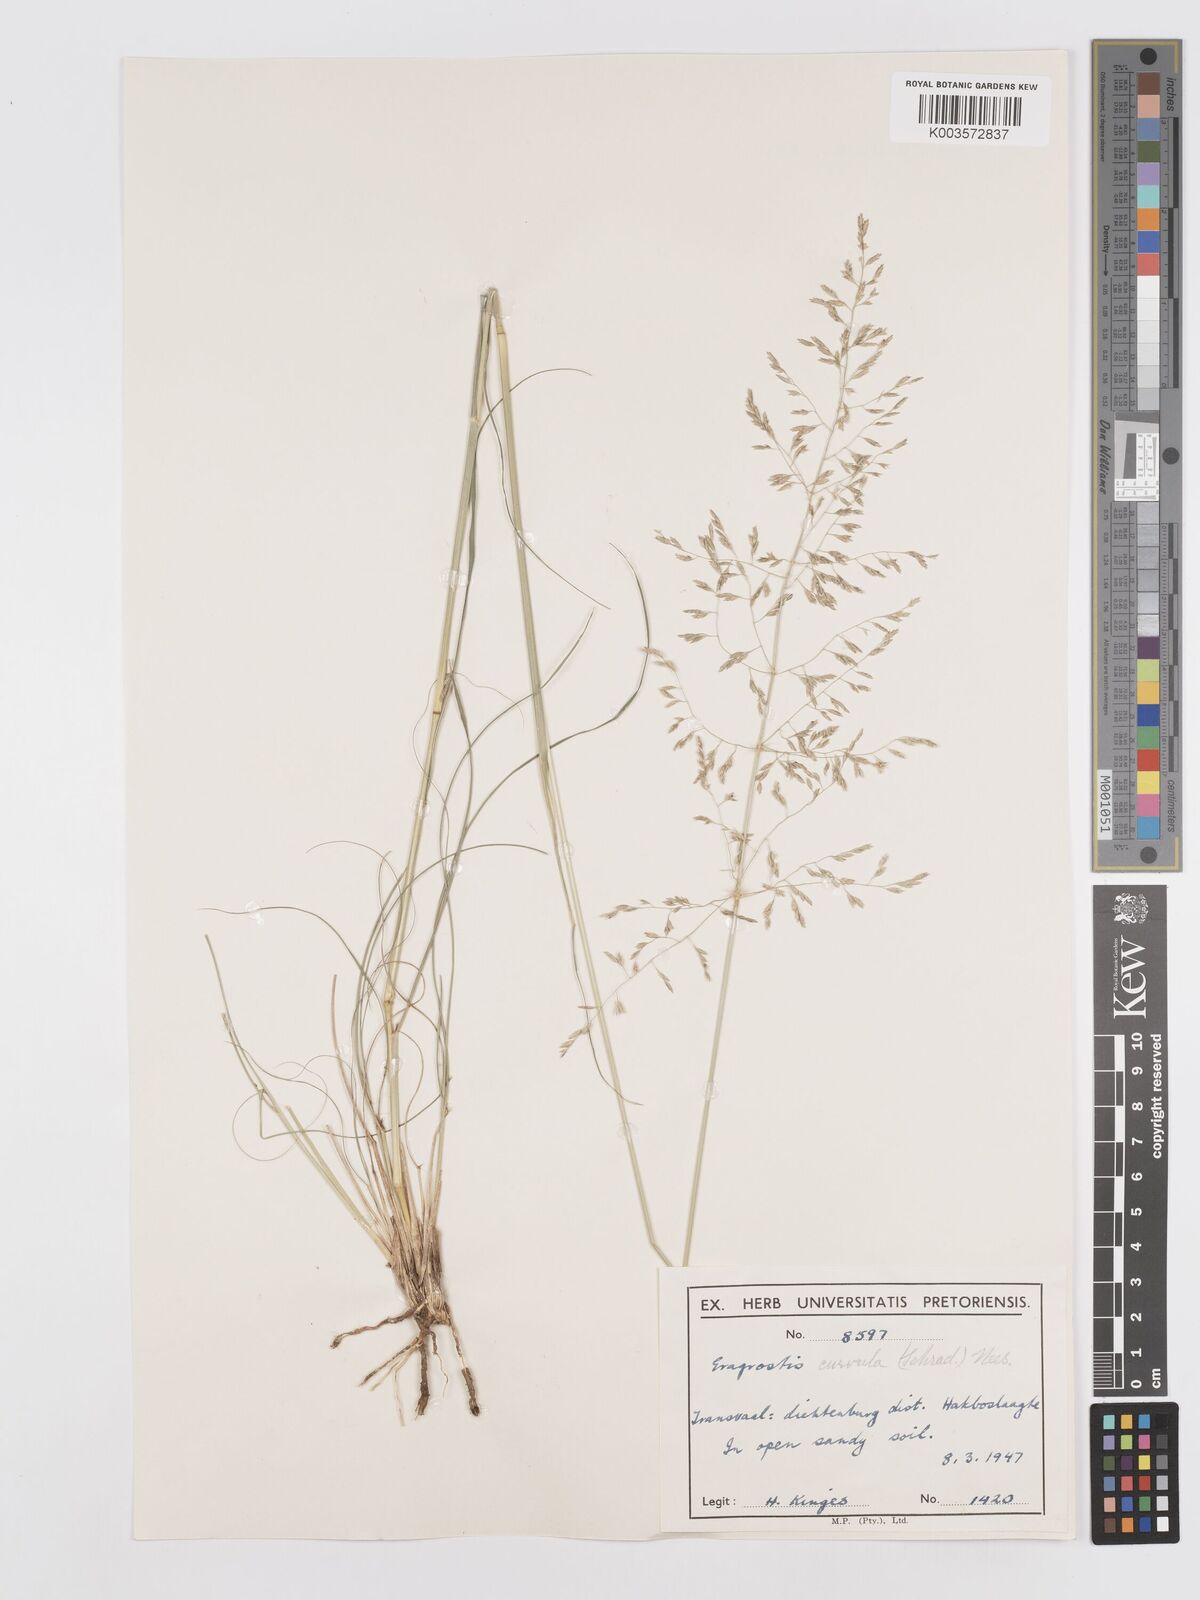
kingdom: Plantae
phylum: Tracheophyta
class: Liliopsida
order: Poales
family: Poaceae
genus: Eragrostis
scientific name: Eragrostis curvula
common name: African love-grass
